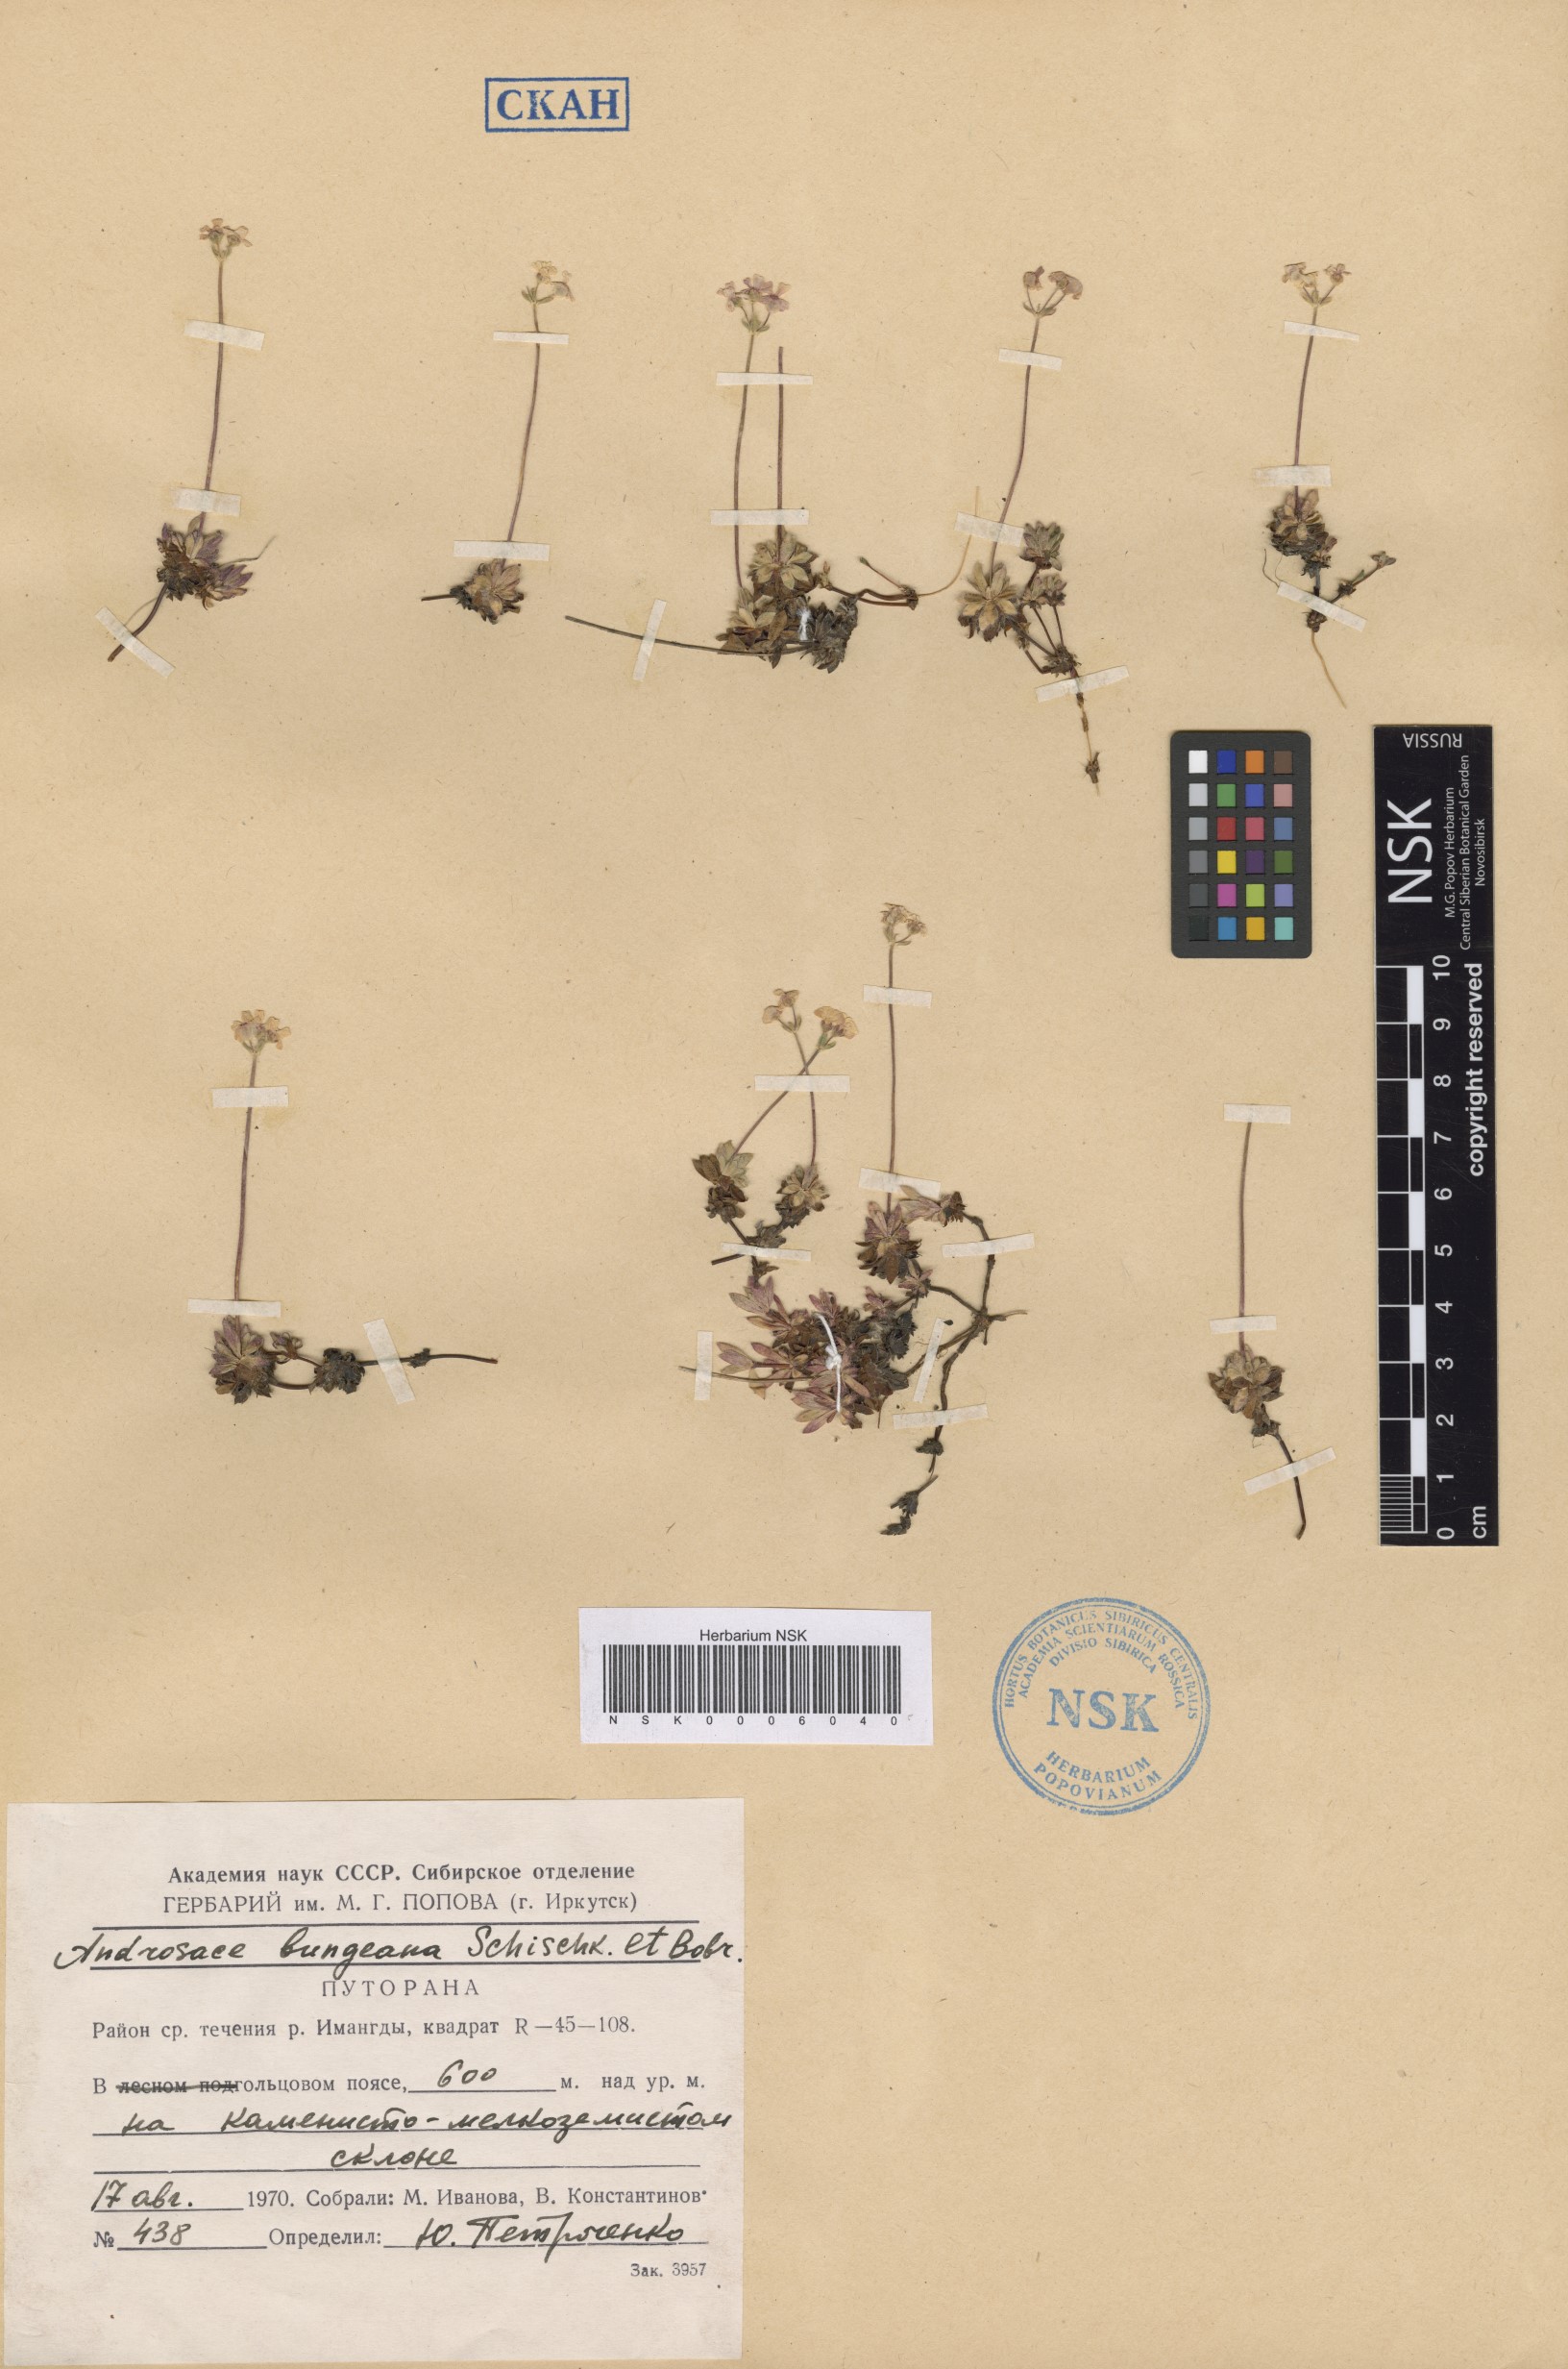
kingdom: Plantae
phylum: Tracheophyta
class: Magnoliopsida
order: Ericales
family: Primulaceae
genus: Androsace
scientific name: Androsace bungeana
